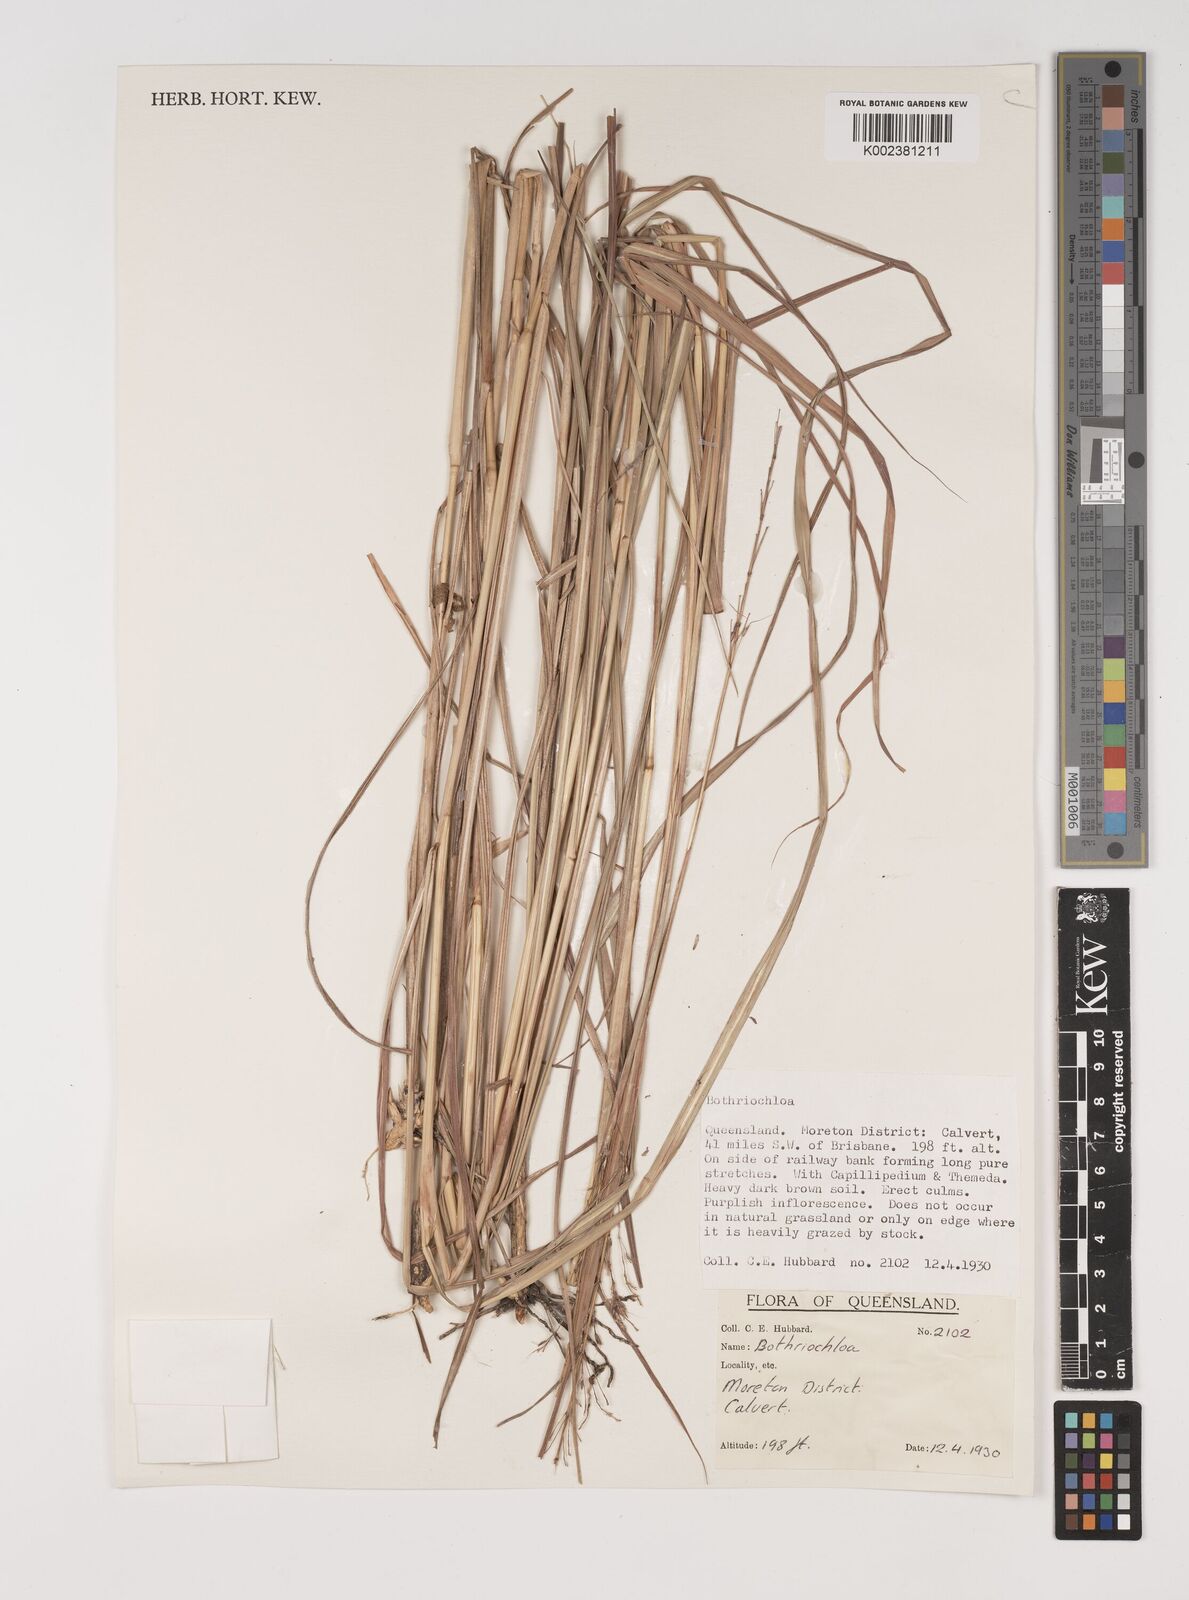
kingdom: Plantae
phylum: Tracheophyta
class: Liliopsida
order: Poales
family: Poaceae
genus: Bothriochloa
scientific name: Bothriochloa
